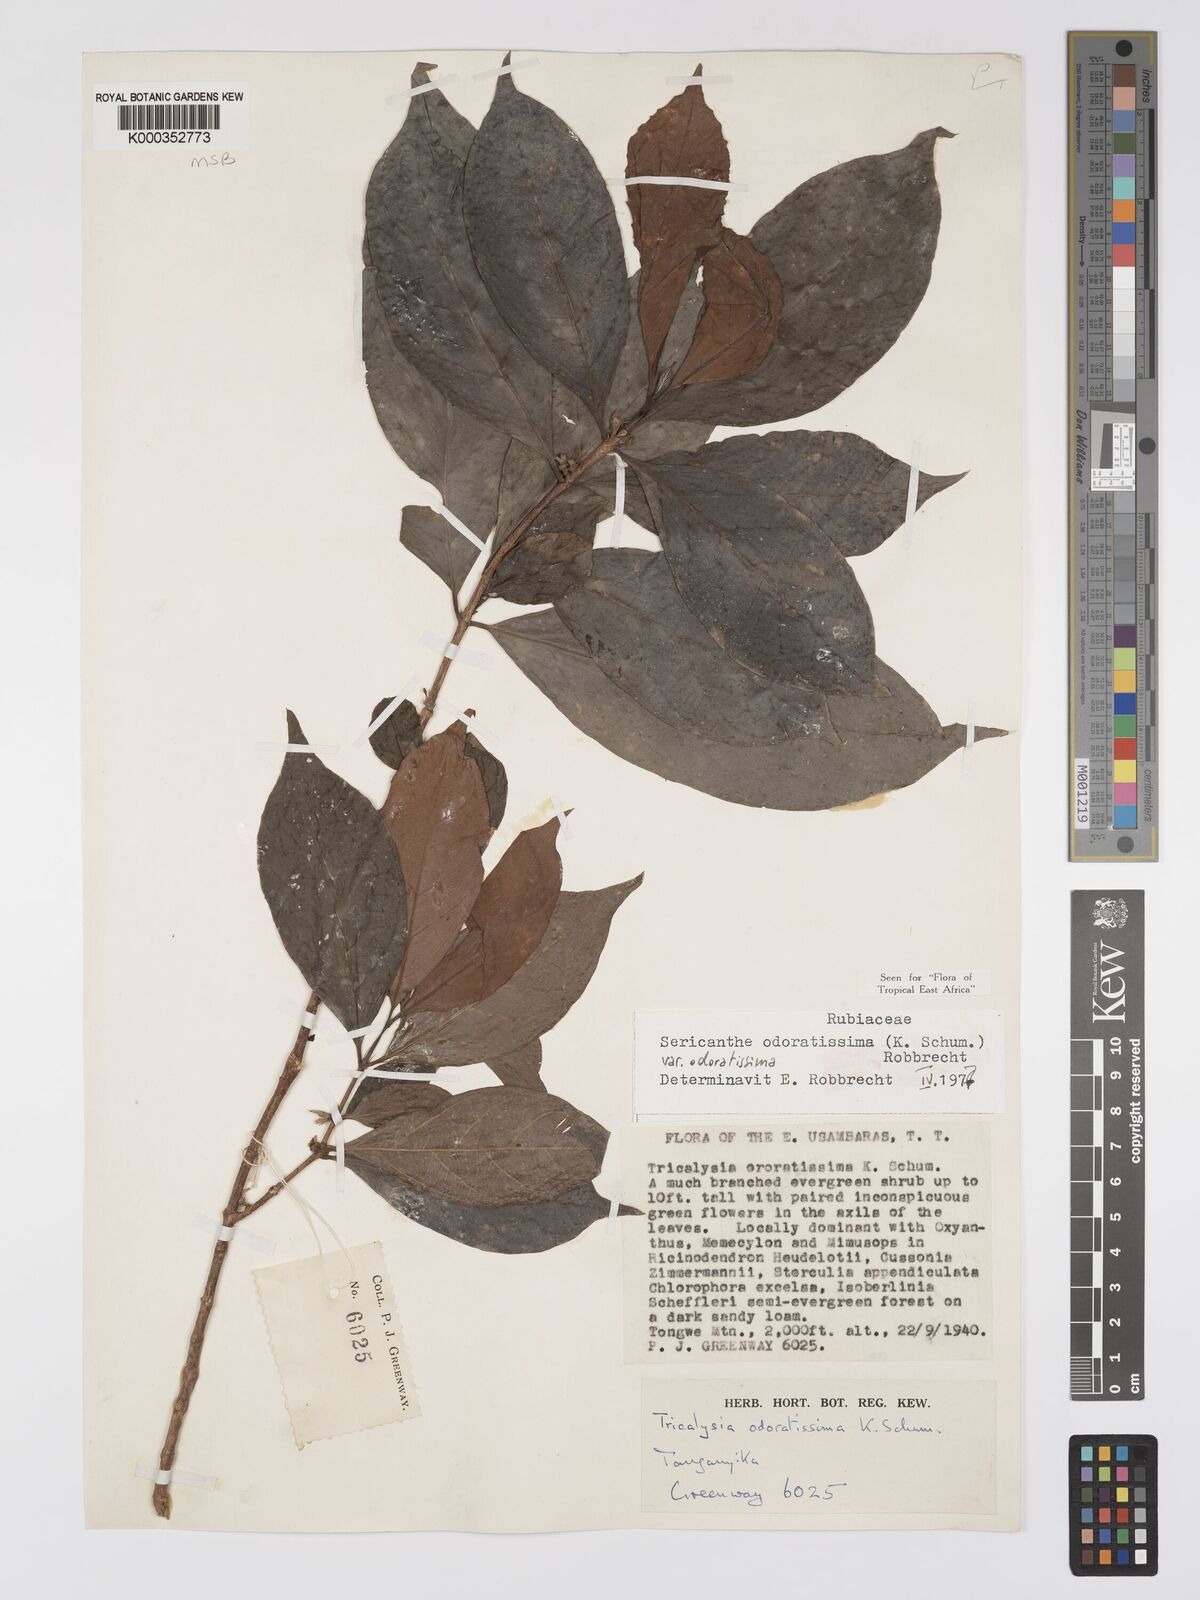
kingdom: Plantae
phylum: Tracheophyta
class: Magnoliopsida
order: Gentianales
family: Rubiaceae
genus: Sericanthe
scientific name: Sericanthe odoratissima
